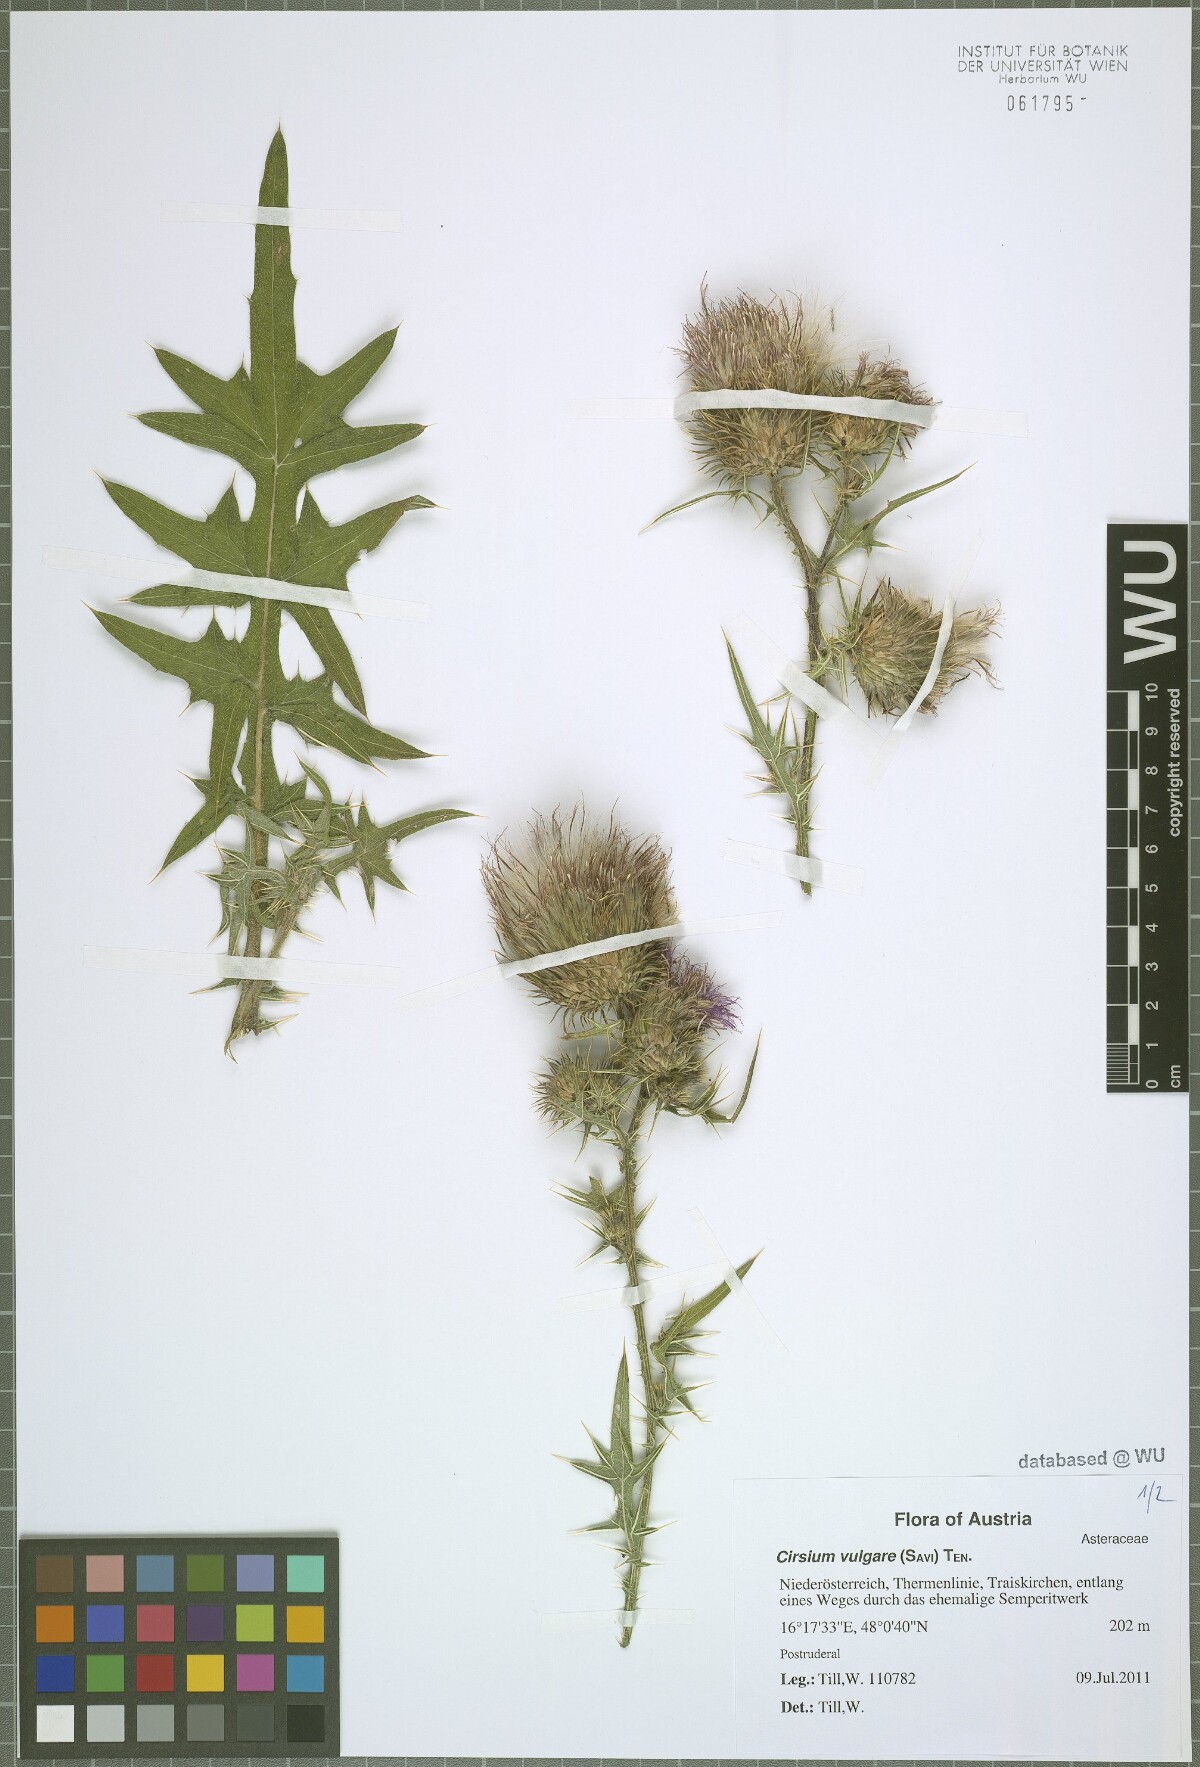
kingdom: Plantae
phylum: Tracheophyta
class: Magnoliopsida
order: Asterales
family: Asteraceae
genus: Cirsium
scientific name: Cirsium vulgare
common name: Bull thistle
